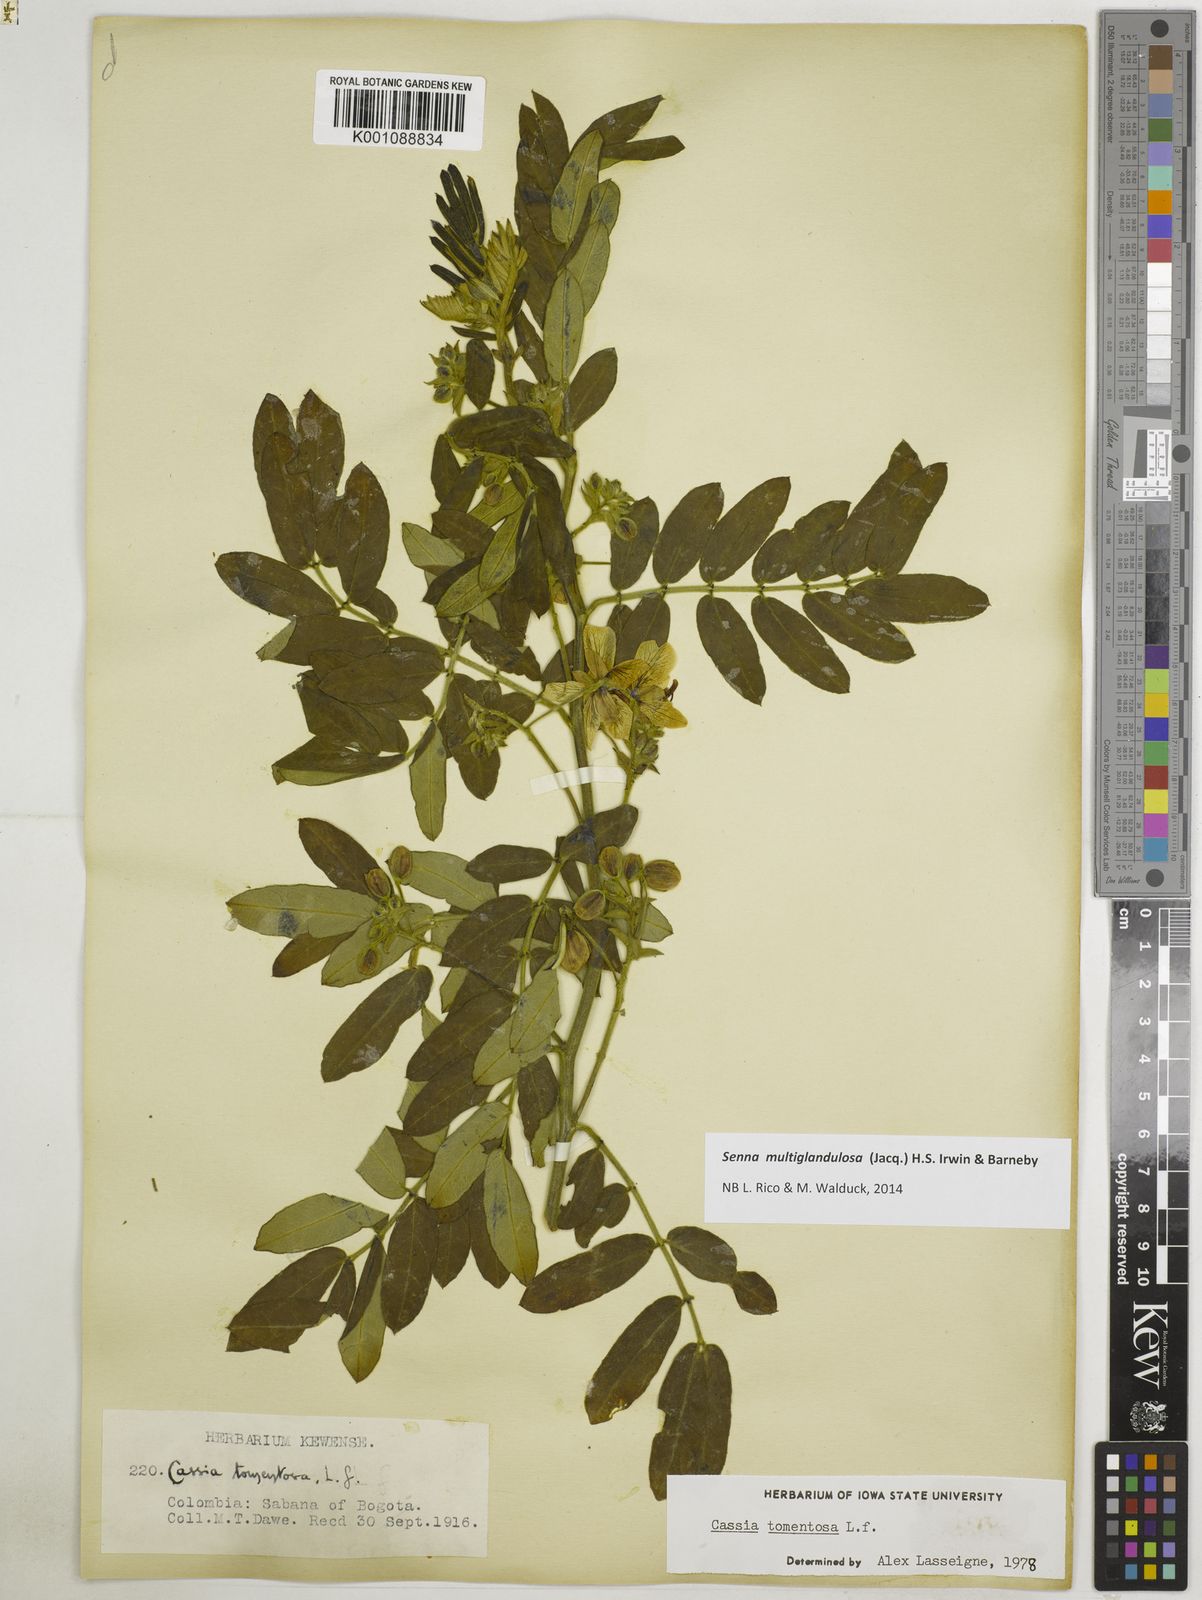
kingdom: Plantae
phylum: Tracheophyta
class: Magnoliopsida
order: Fabales
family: Fabaceae
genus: Senna
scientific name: Senna multiglandulosa
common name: Glandular senna
